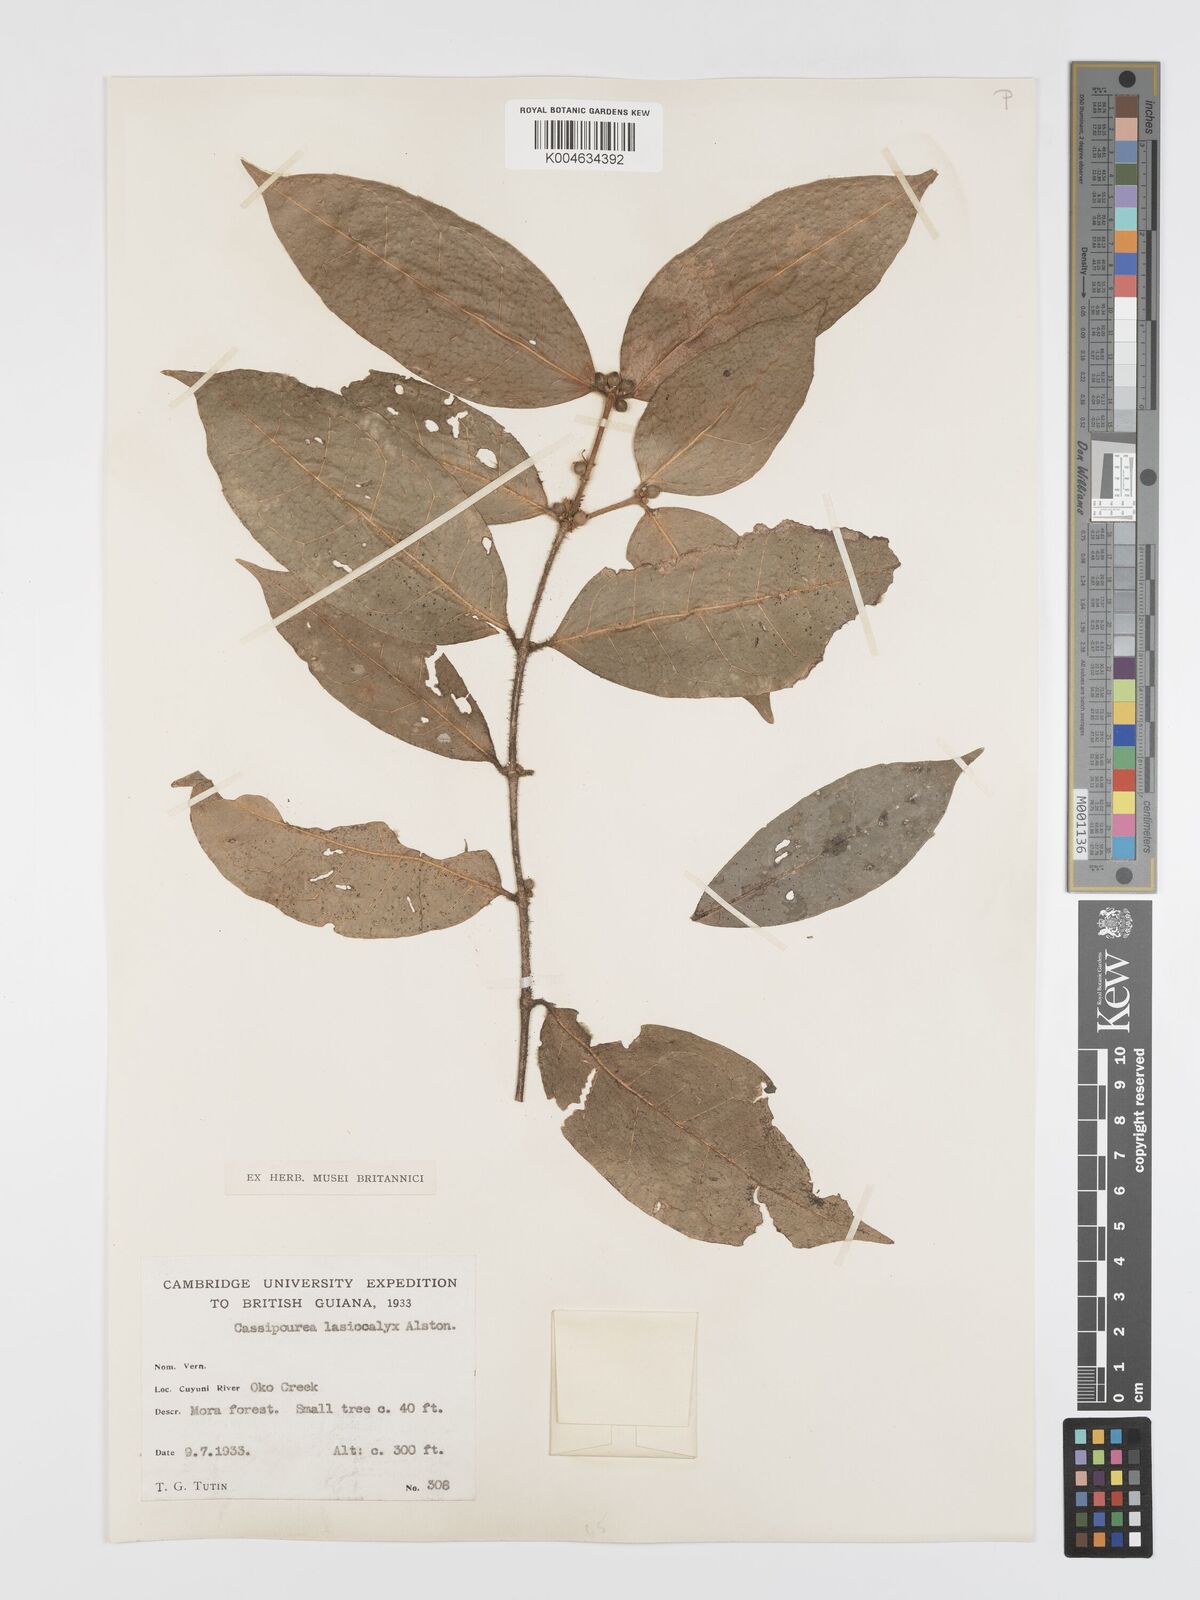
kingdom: Plantae
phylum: Tracheophyta
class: Magnoliopsida
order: Malpighiales
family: Rhizophoraceae
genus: Cassipourea
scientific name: Cassipourea lasiocalyx
